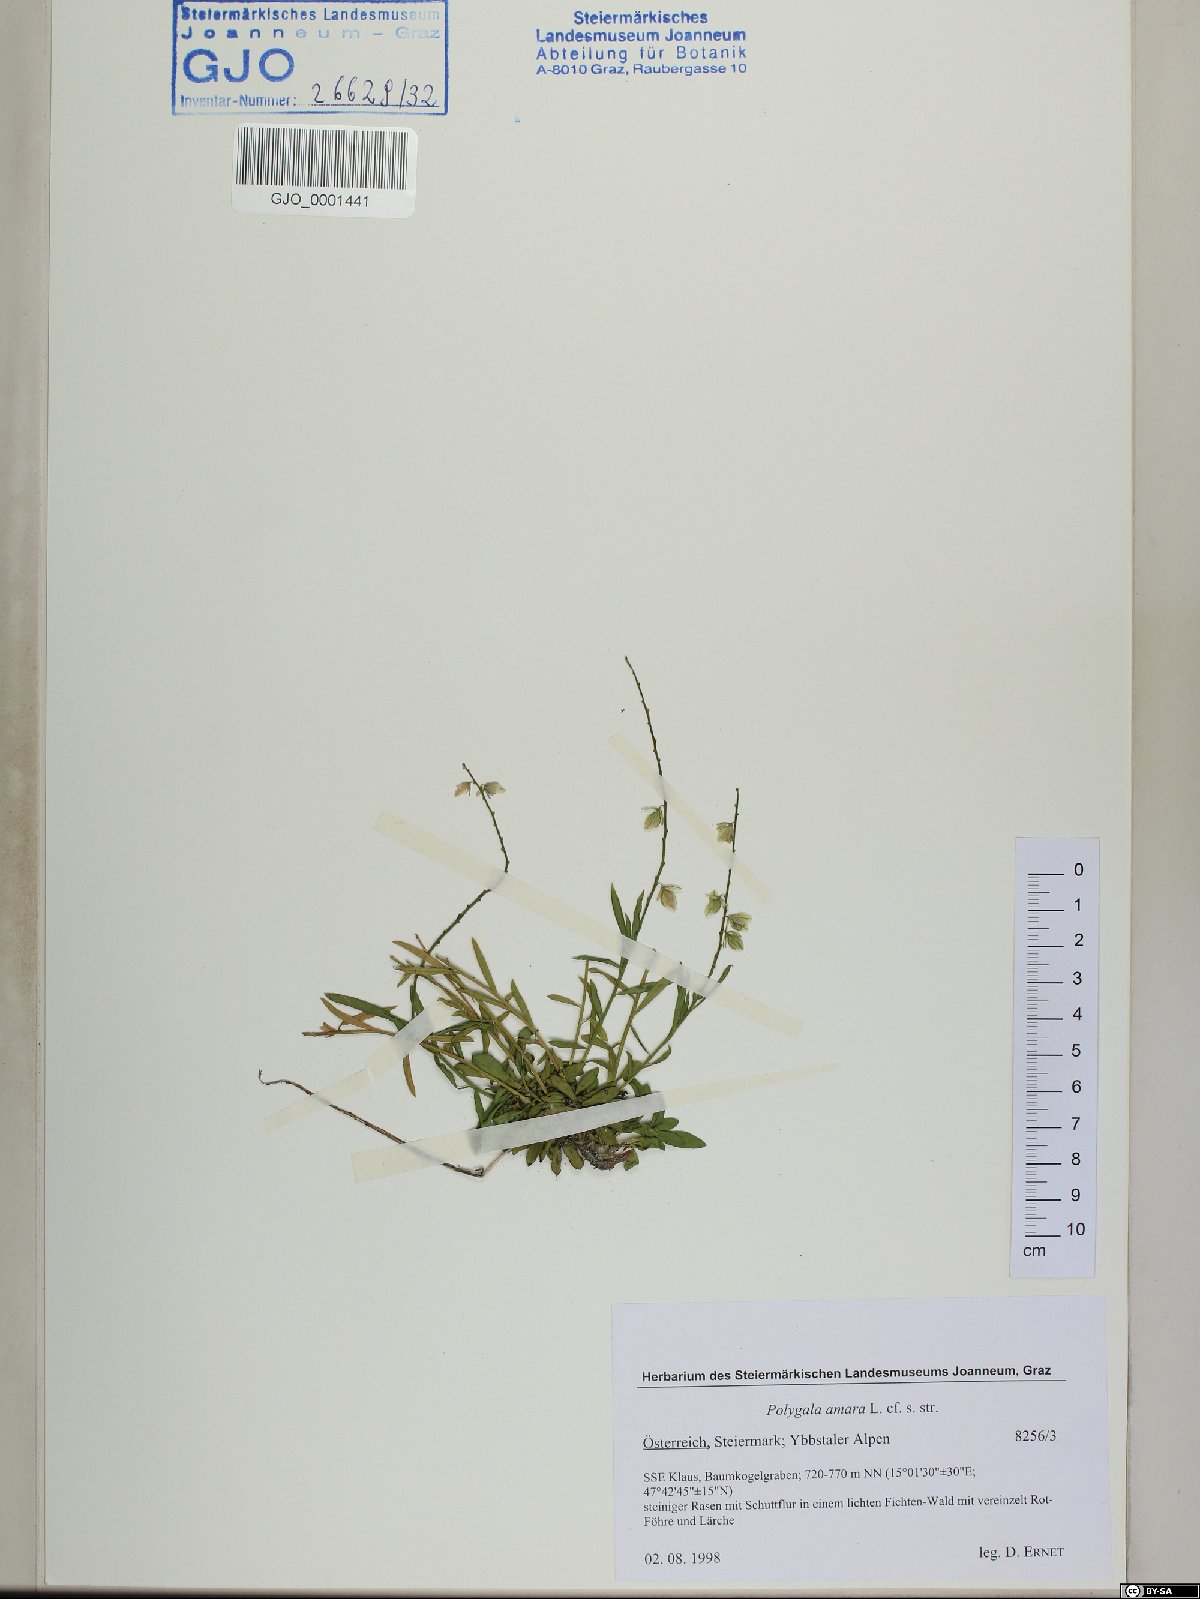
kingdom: Plantae
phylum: Tracheophyta
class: Magnoliopsida
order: Fabales
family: Polygalaceae
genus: Polygala
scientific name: Polygala amara
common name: Milkwort
